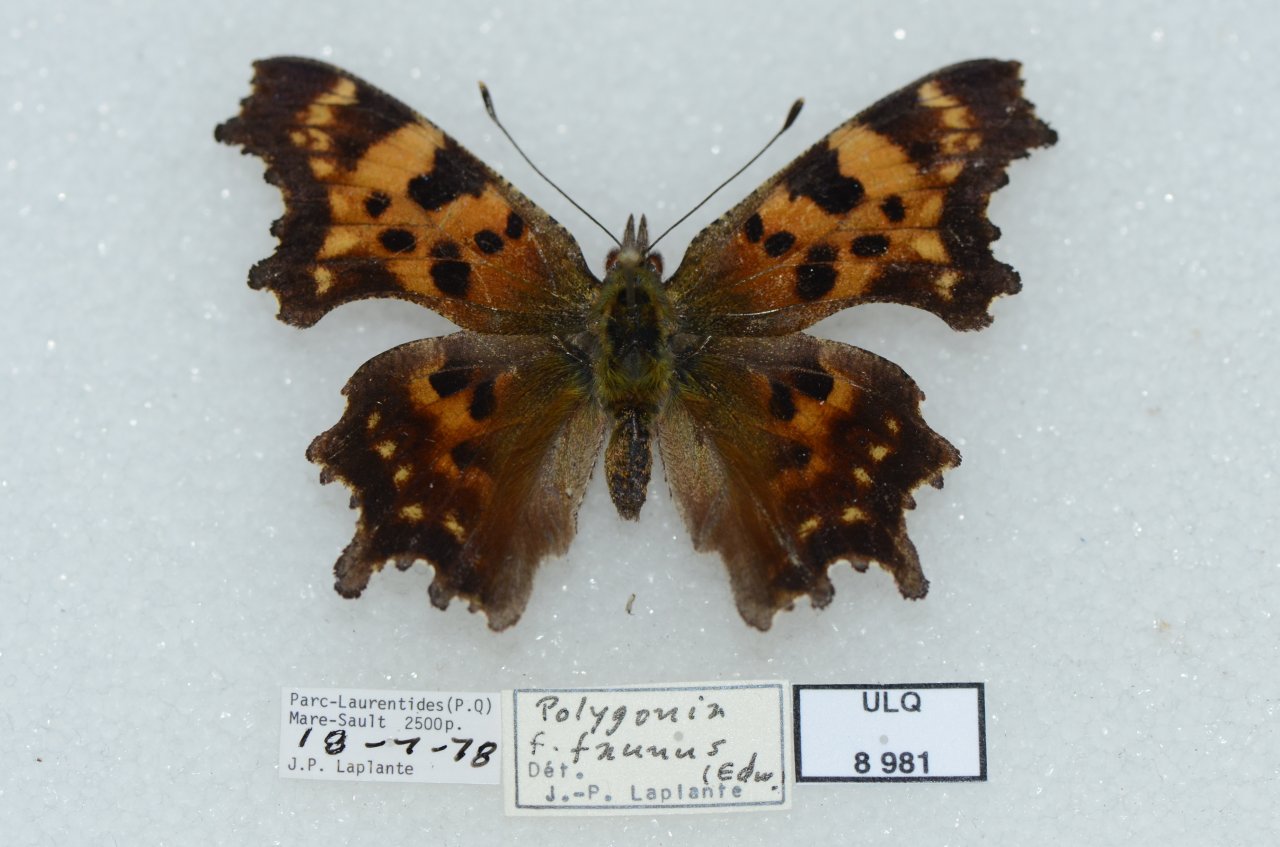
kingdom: Animalia
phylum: Arthropoda
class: Insecta
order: Lepidoptera
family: Nymphalidae
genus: Polygonia
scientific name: Polygonia faunus
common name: Green Comma
